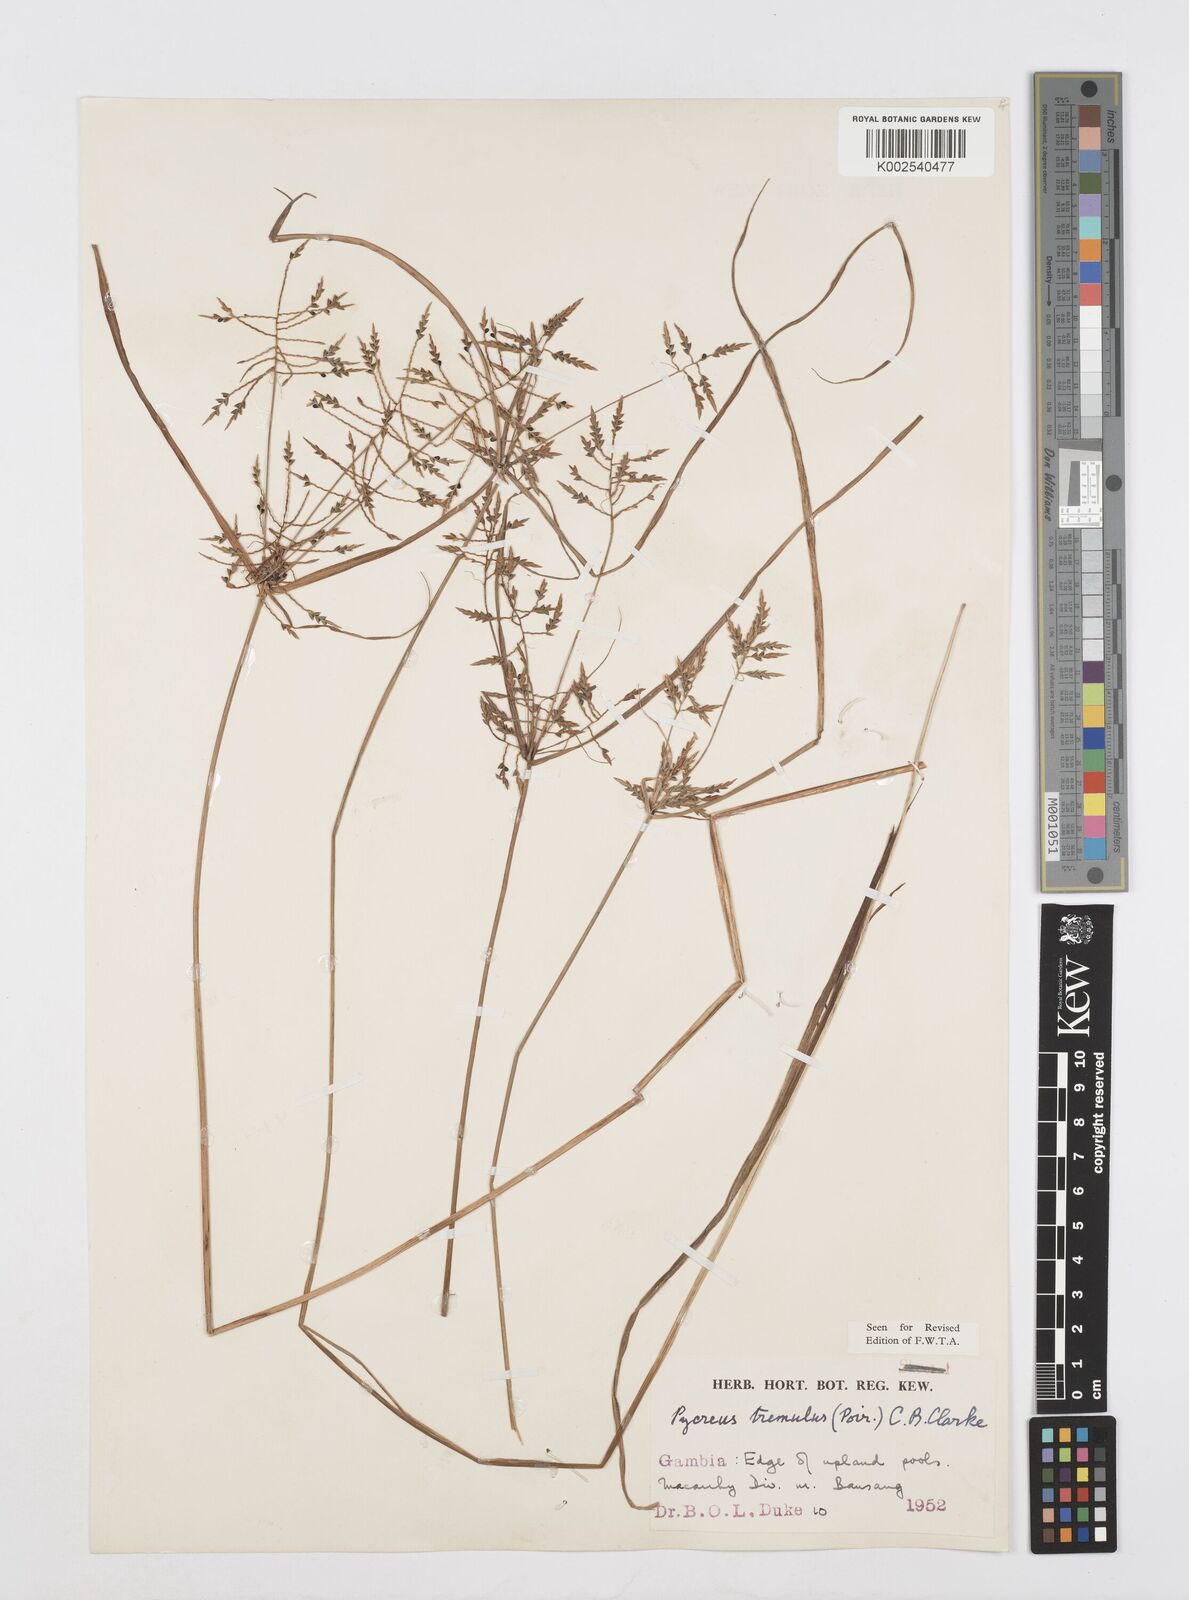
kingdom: Plantae
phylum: Tracheophyta
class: Liliopsida
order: Poales
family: Cyperaceae
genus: Cyperus
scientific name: Cyperus macrostachyos
